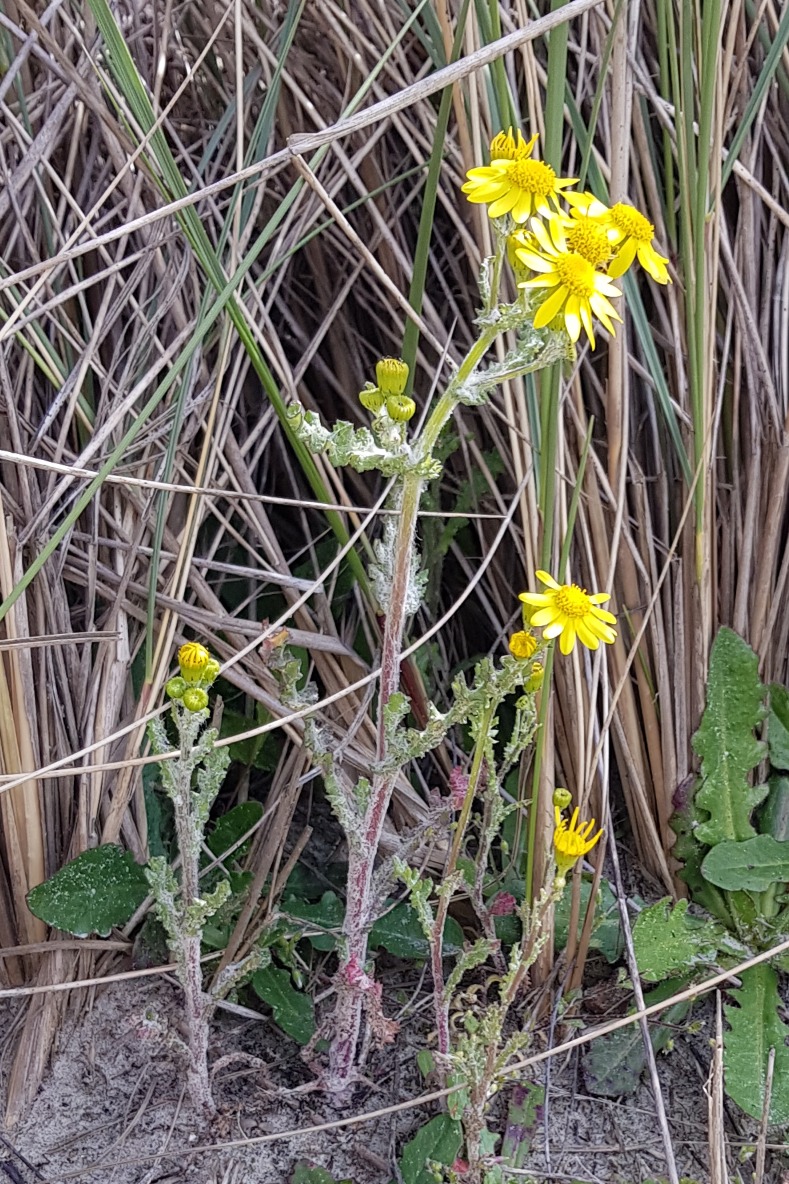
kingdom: Plantae
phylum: Tracheophyta
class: Magnoliopsida
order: Asterales
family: Asteraceae
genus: Senecio
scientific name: Senecio leucanthemifolius
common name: Vår-brandbæger
